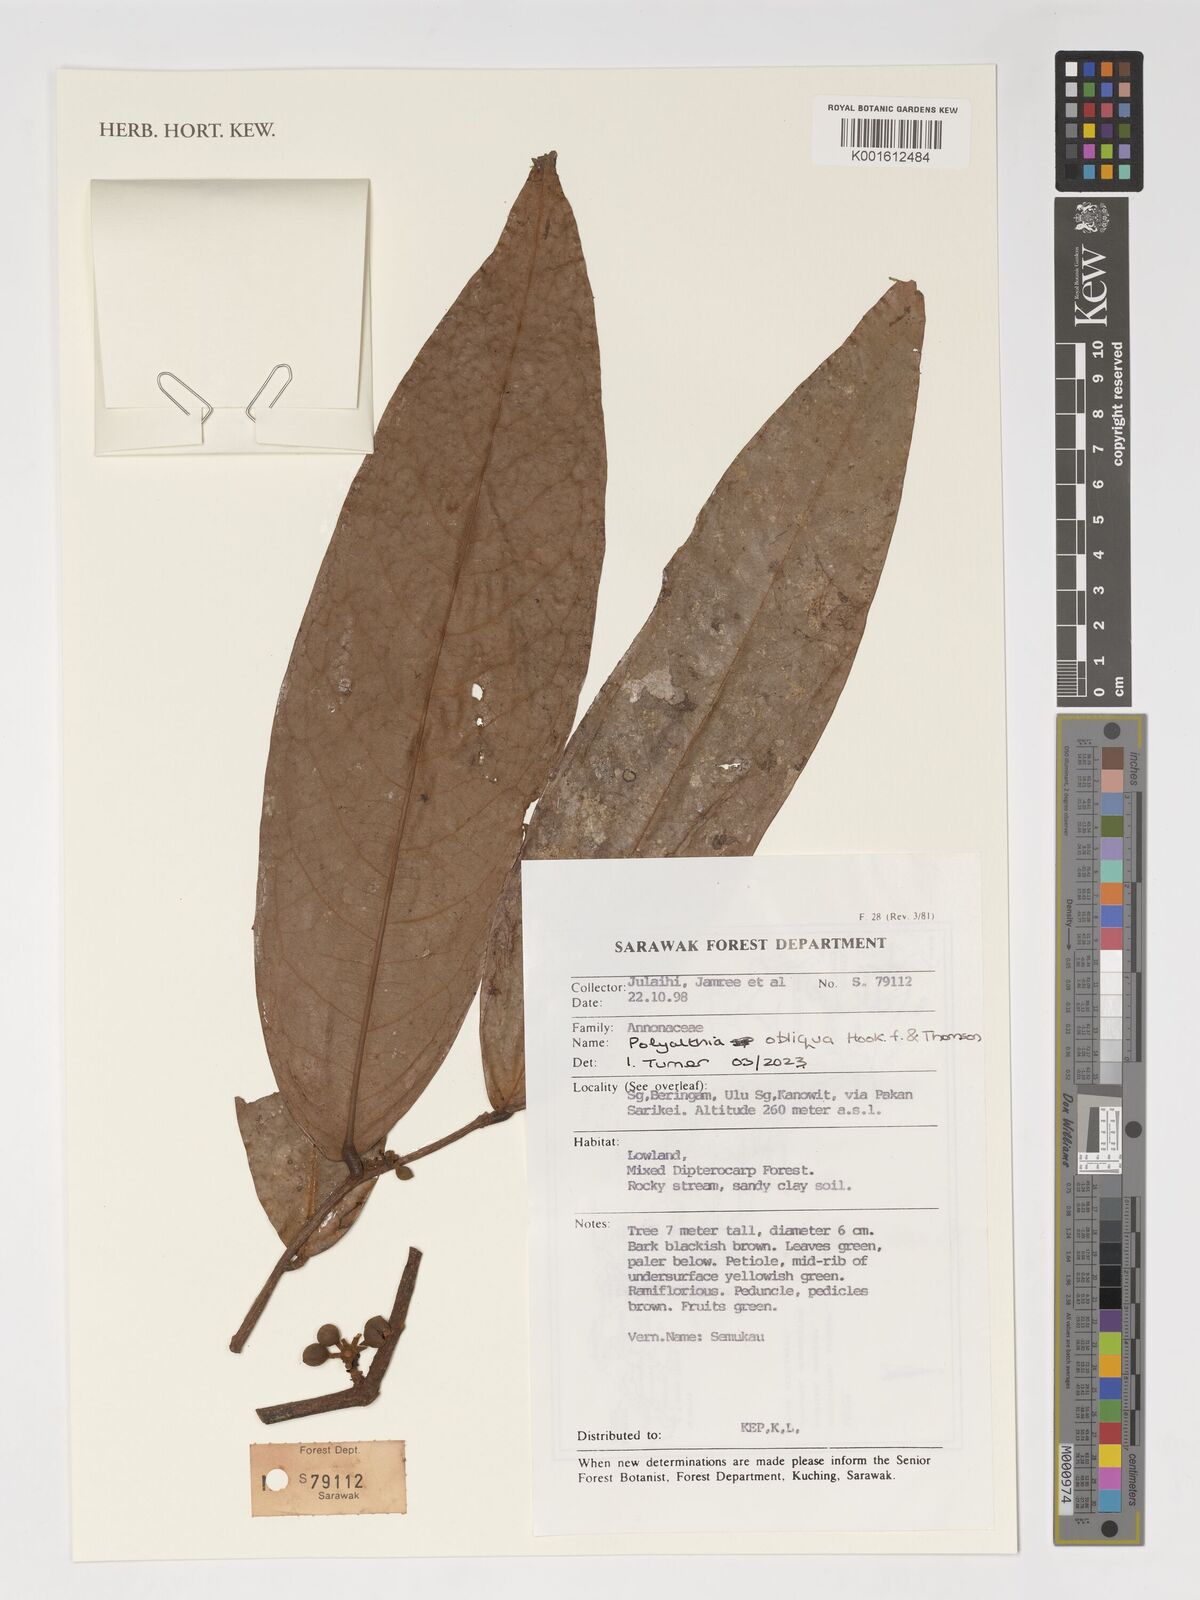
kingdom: Plantae
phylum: Tracheophyta
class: Magnoliopsida
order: Magnoliales
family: Annonaceae
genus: Polyalthia
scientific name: Polyalthia obliqua
